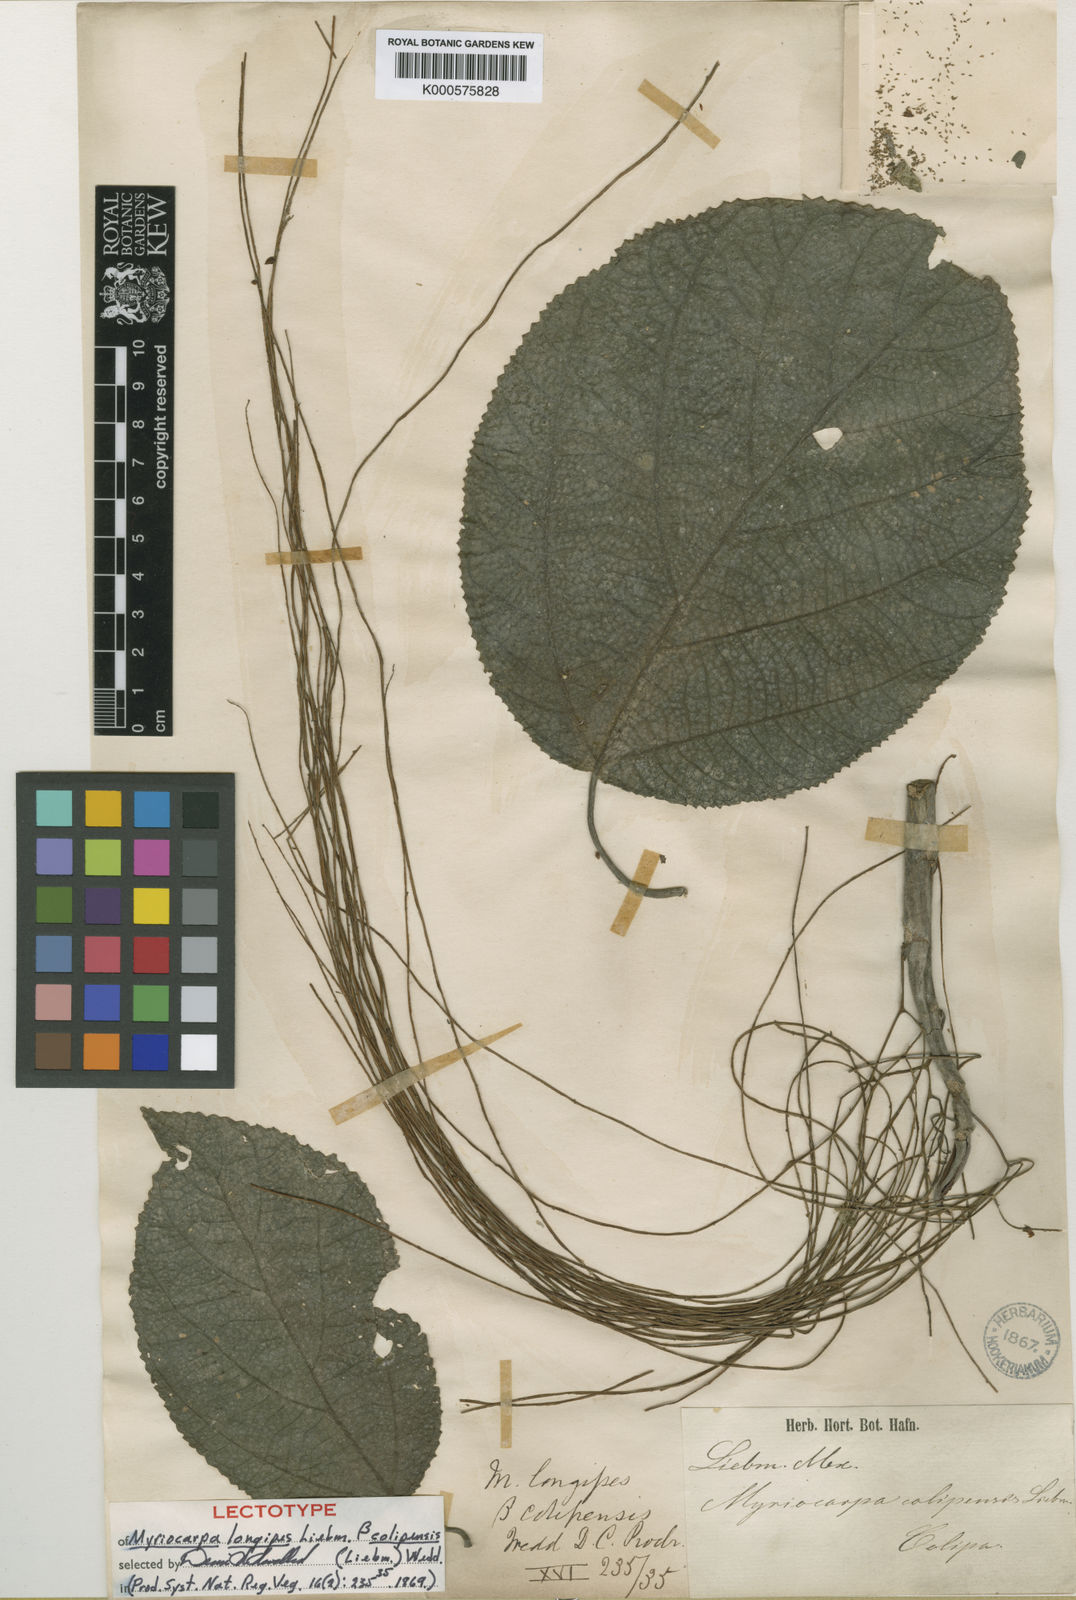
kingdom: Plantae
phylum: Tracheophyta
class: Magnoliopsida
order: Rosales
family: Urticaceae
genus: Myriocarpa
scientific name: Myriocarpa longipes
